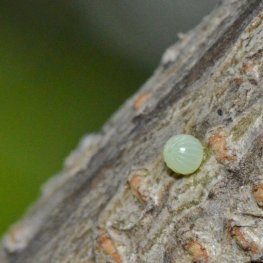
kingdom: Animalia
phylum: Arthropoda
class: Insecta
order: Lepidoptera
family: Hesperiidae
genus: Epargyreus
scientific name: Epargyreus clarus
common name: Silver-spotted Skipper
